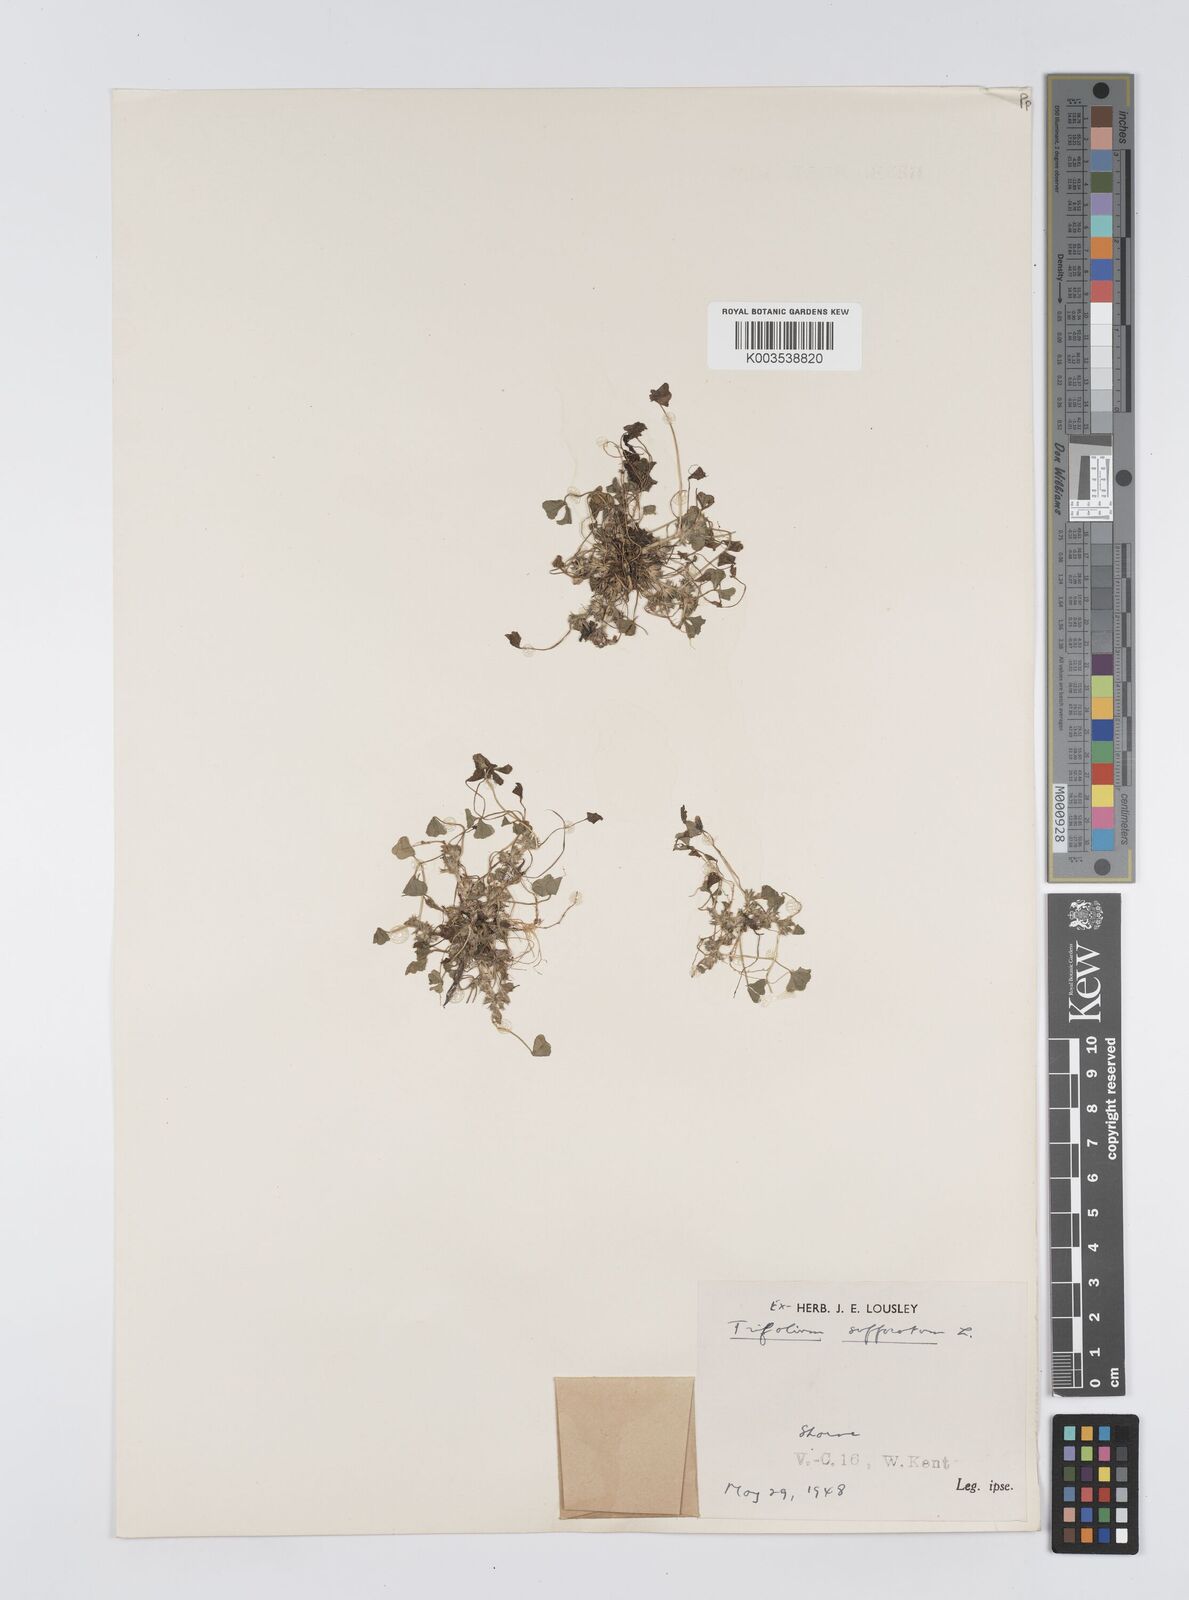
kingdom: Plantae
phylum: Tracheophyta
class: Magnoliopsida
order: Fabales
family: Fabaceae
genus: Trifolium
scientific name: Trifolium suffocatum
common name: Suffocated clover
